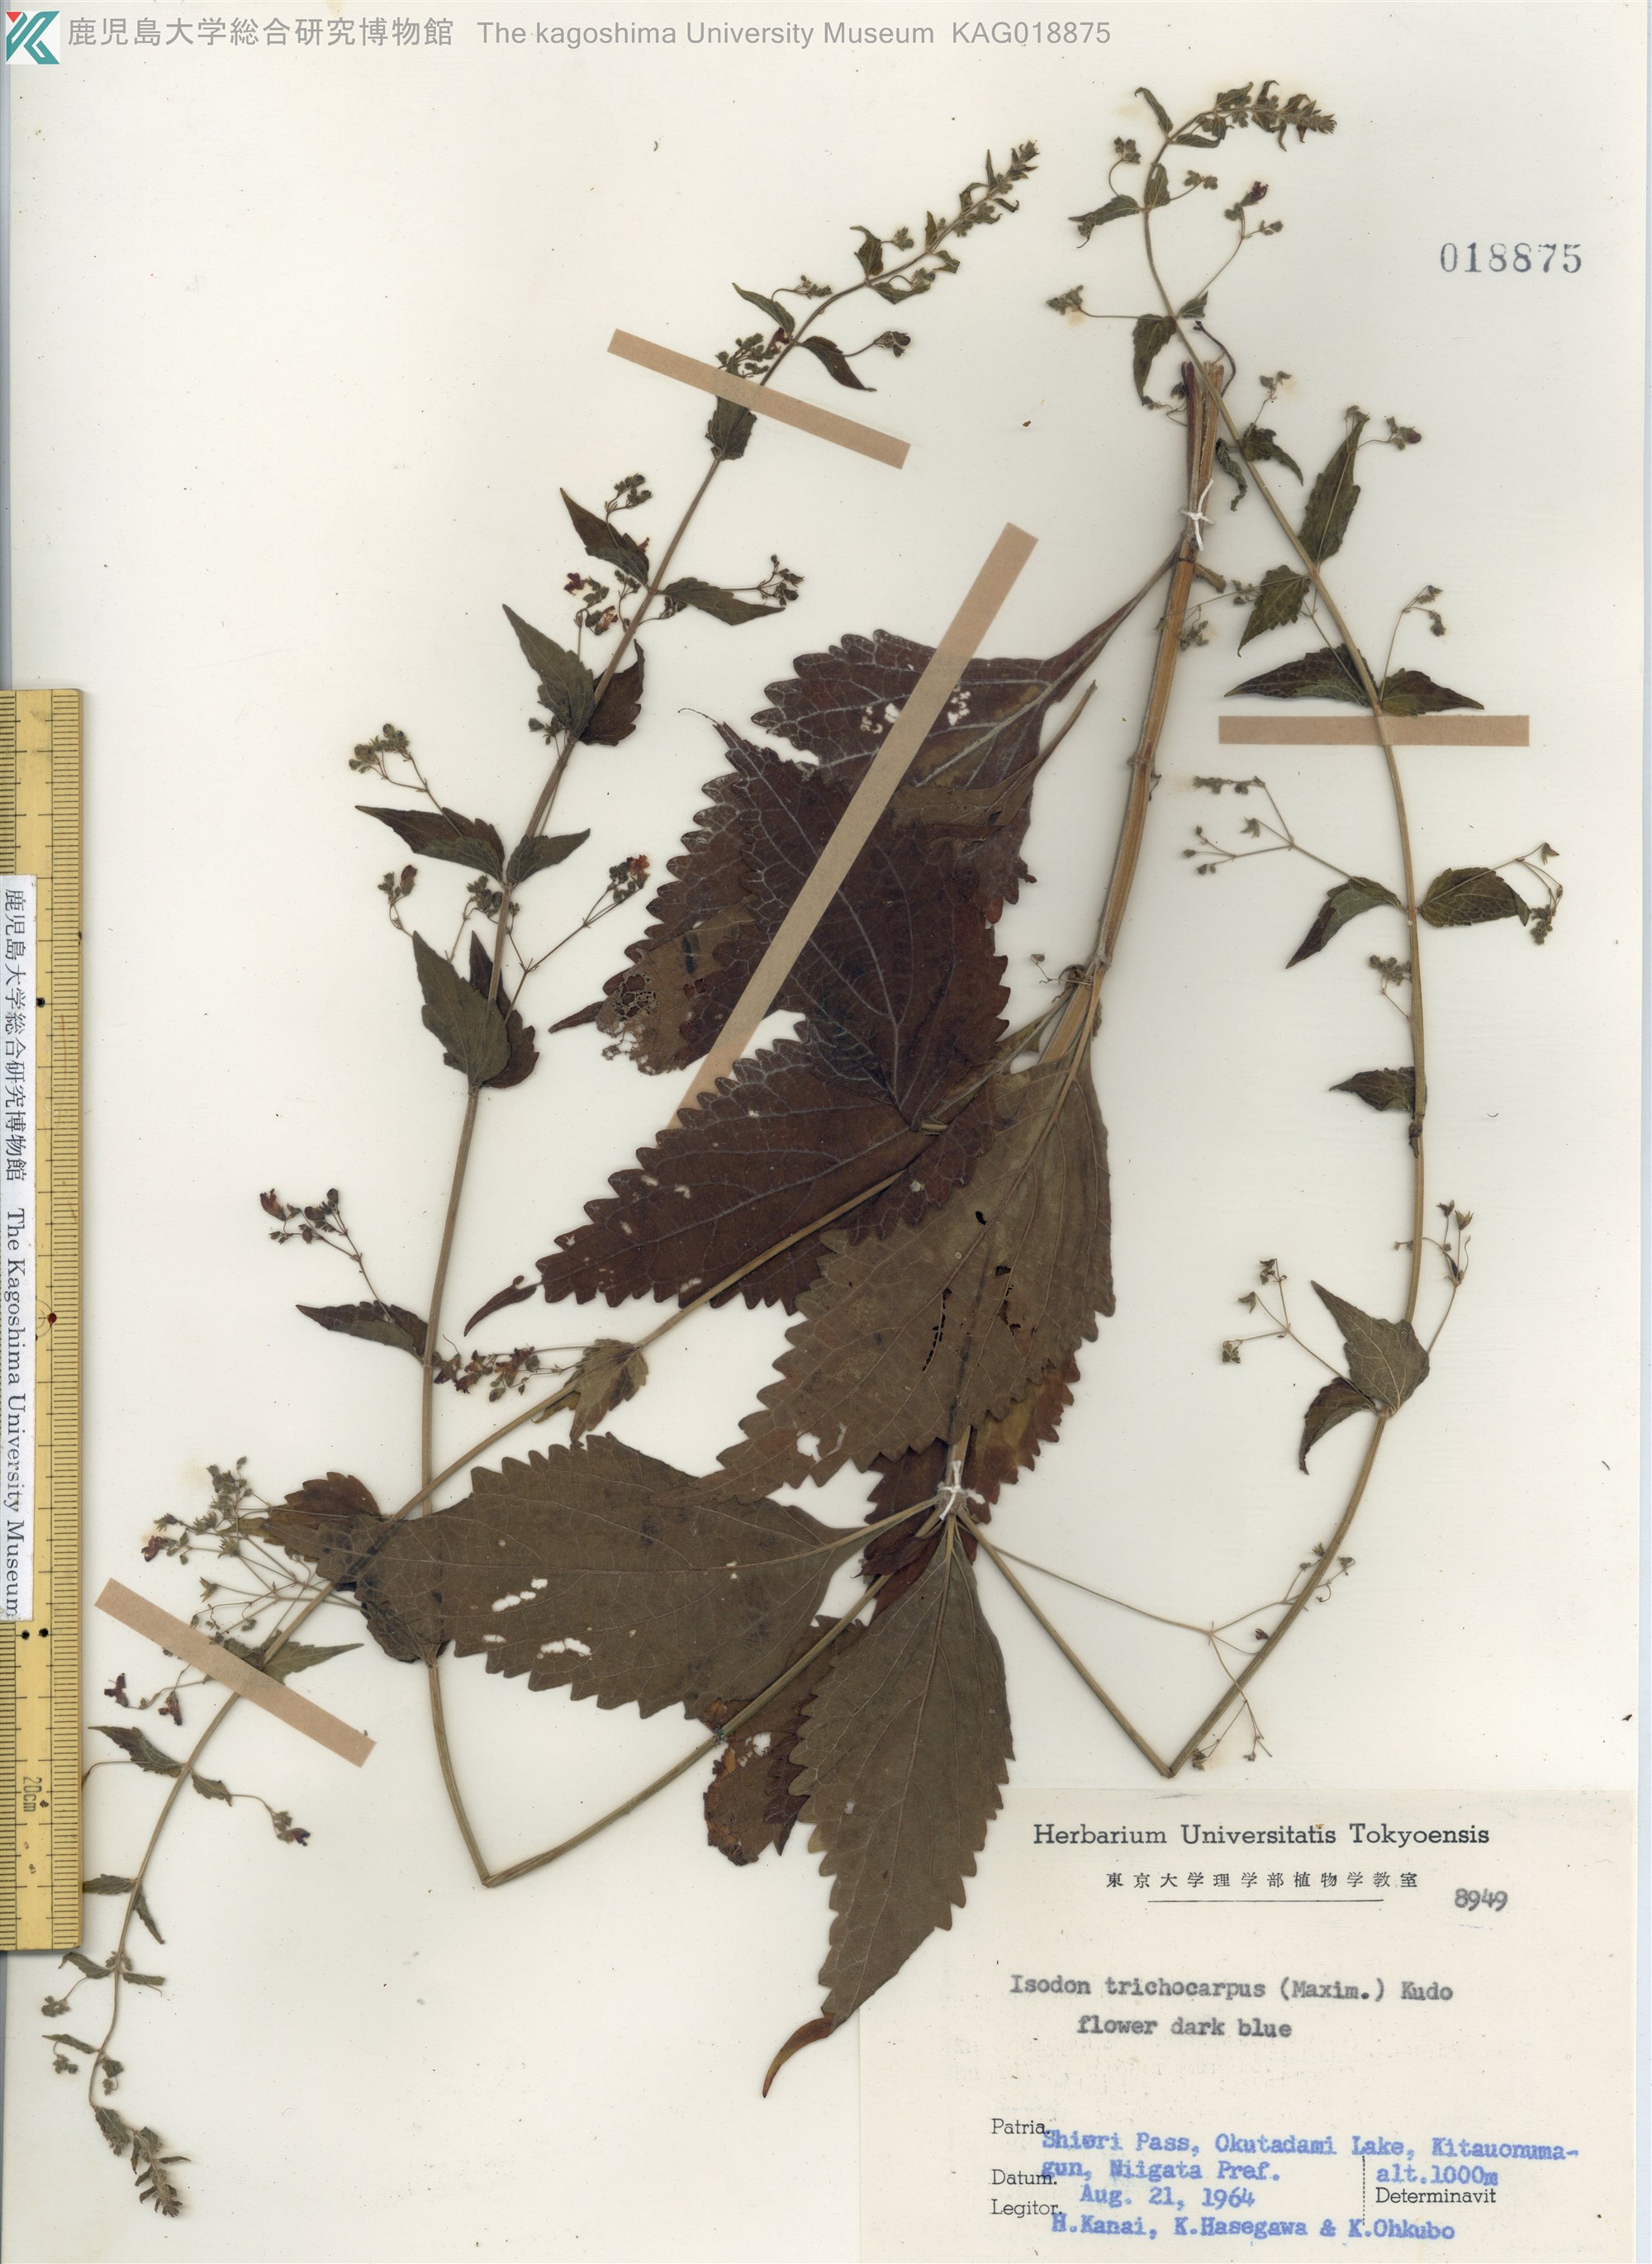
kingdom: Plantae
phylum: Tracheophyta
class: Magnoliopsida
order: Lamiales
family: Lamiaceae
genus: Isodon
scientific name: Isodon trichocarpus
